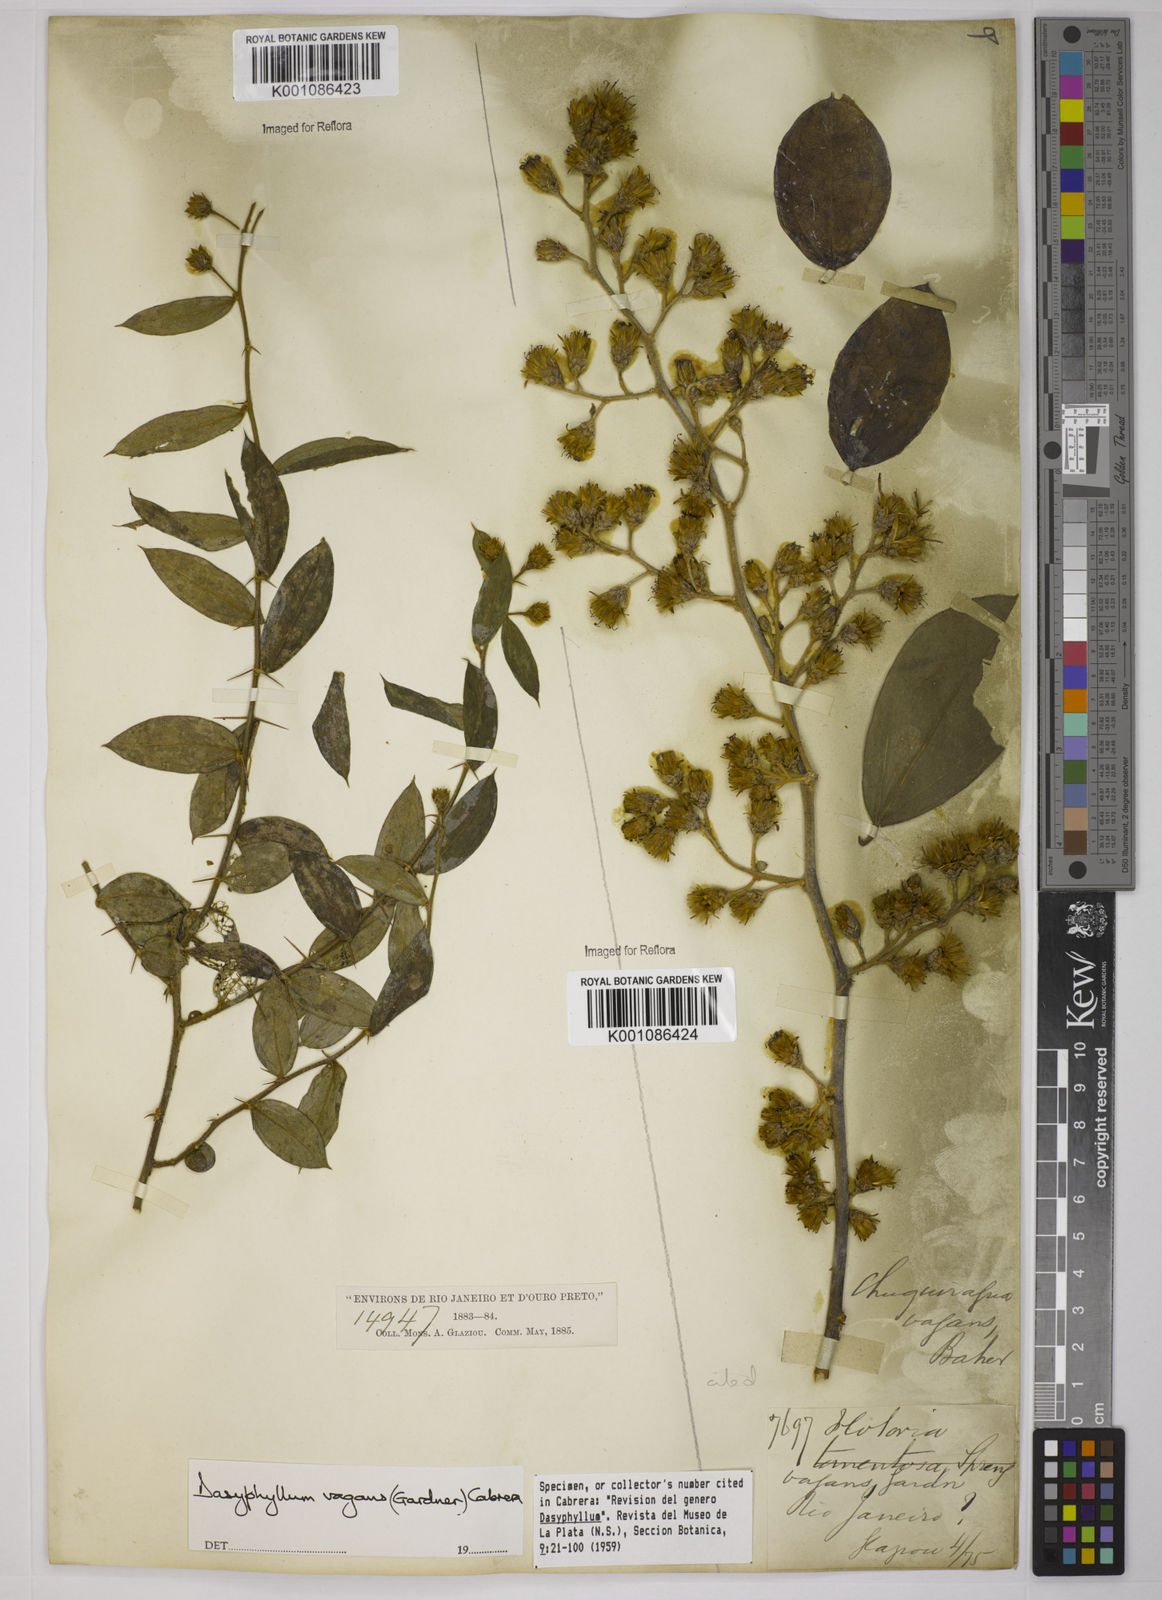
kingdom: Plantae
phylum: Tracheophyta
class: Magnoliopsida
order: Asterales
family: Asteraceae
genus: Dasyphyllum
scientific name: Dasyphyllum vagans
